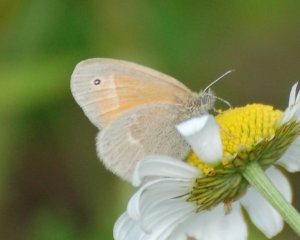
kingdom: Animalia
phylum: Arthropoda
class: Insecta
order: Lepidoptera
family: Nymphalidae
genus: Coenonympha
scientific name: Coenonympha tullia
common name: Large Heath
